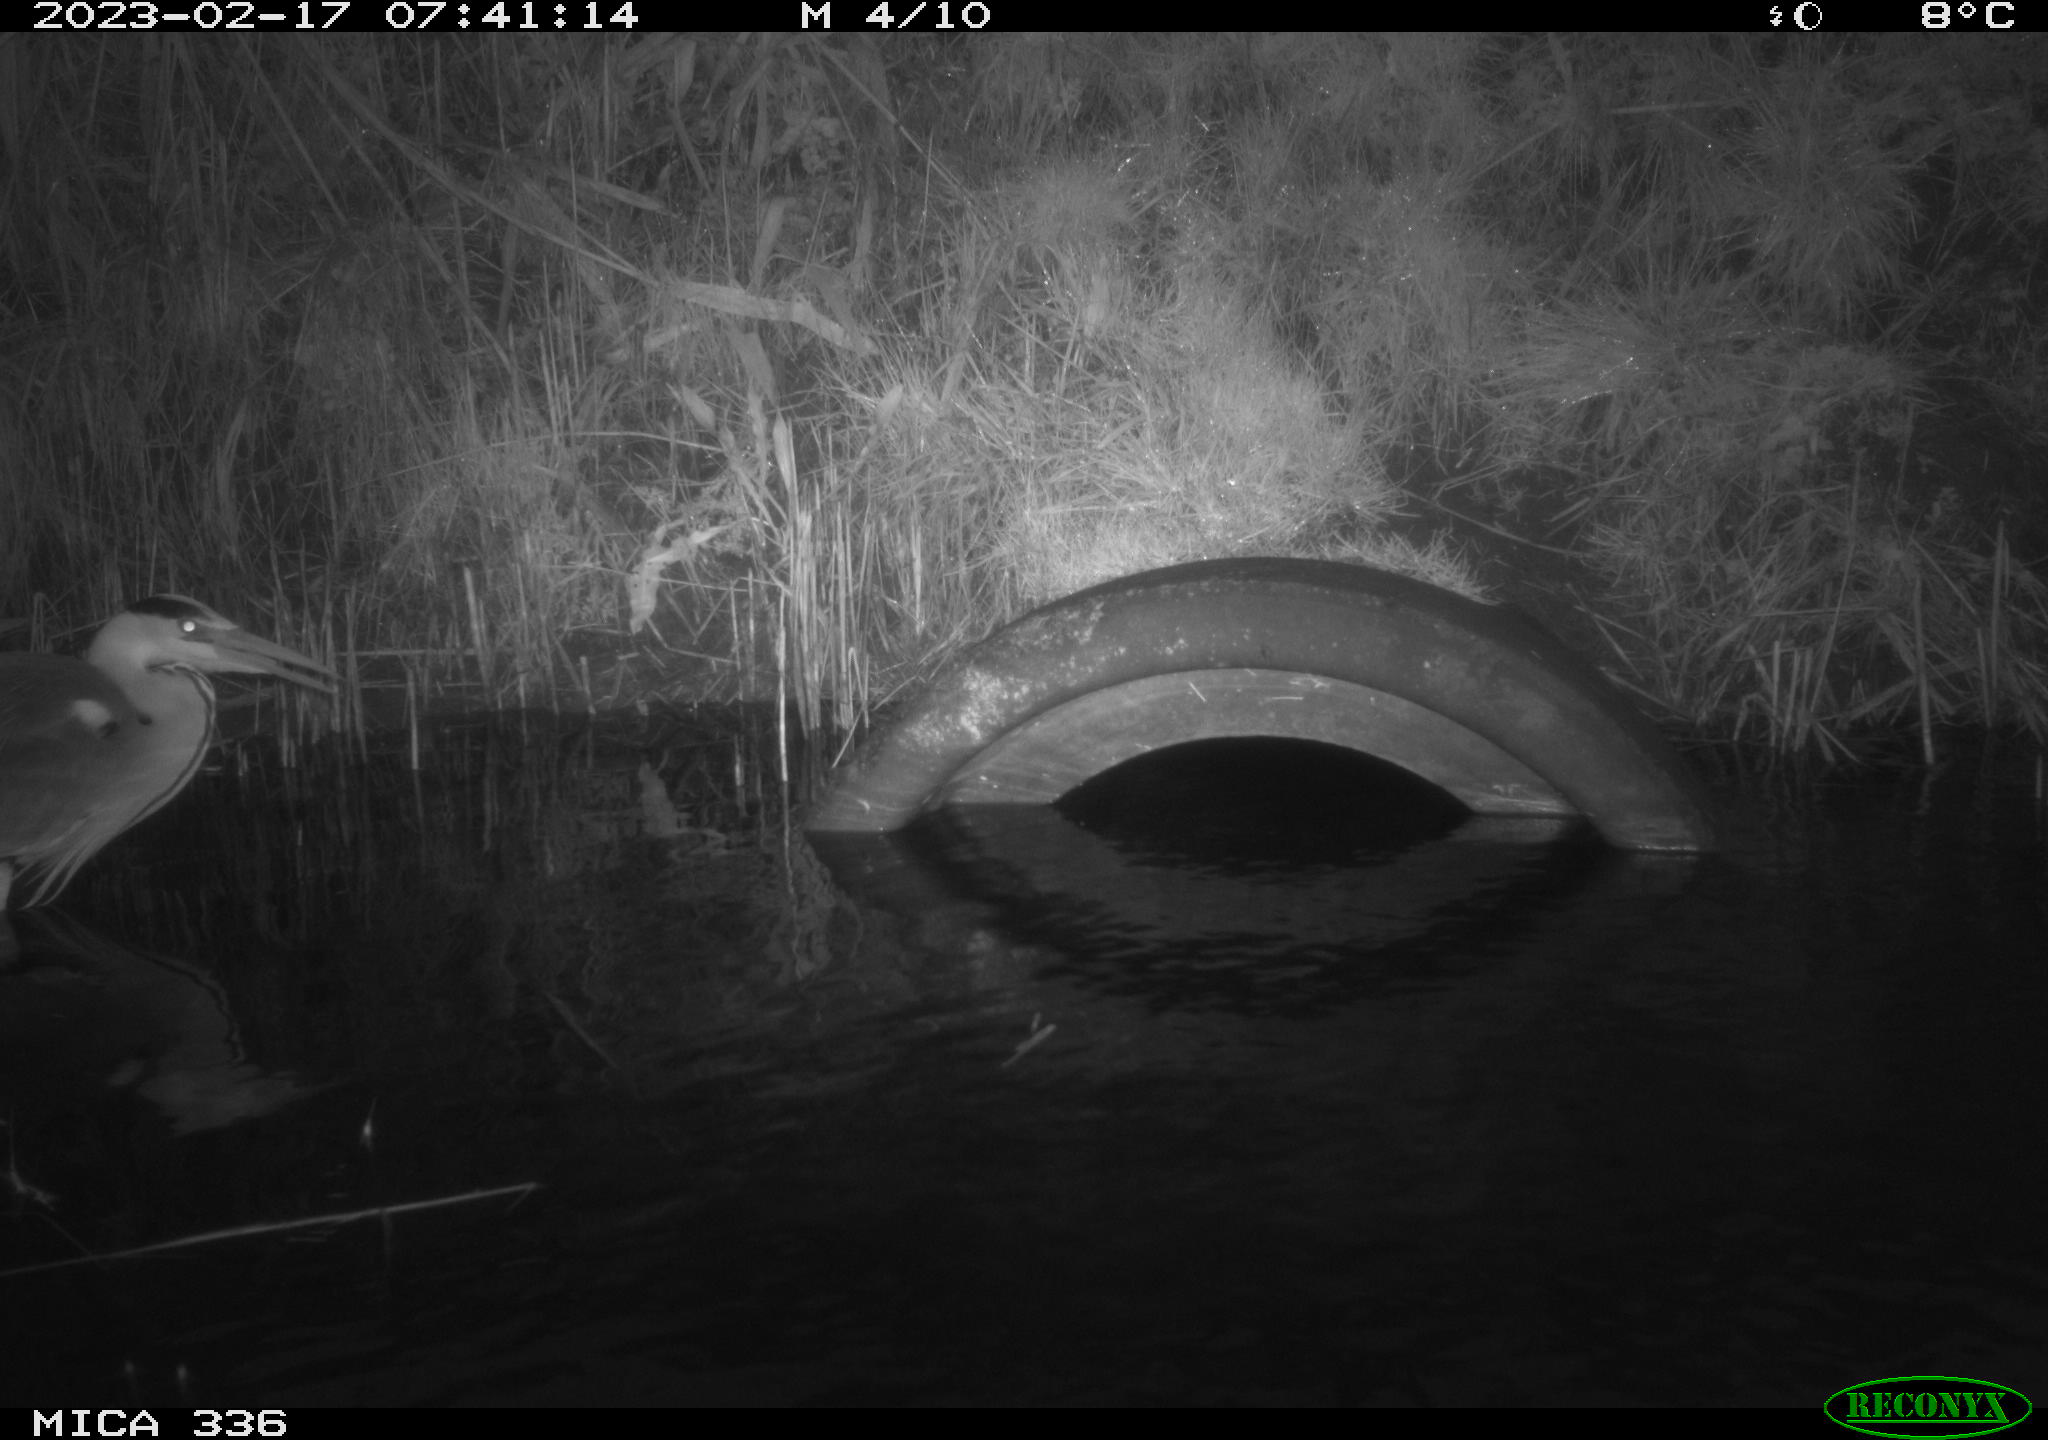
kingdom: Animalia
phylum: Chordata
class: Aves
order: Pelecaniformes
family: Ardeidae
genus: Ardea
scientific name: Ardea cinerea
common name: Grey heron
